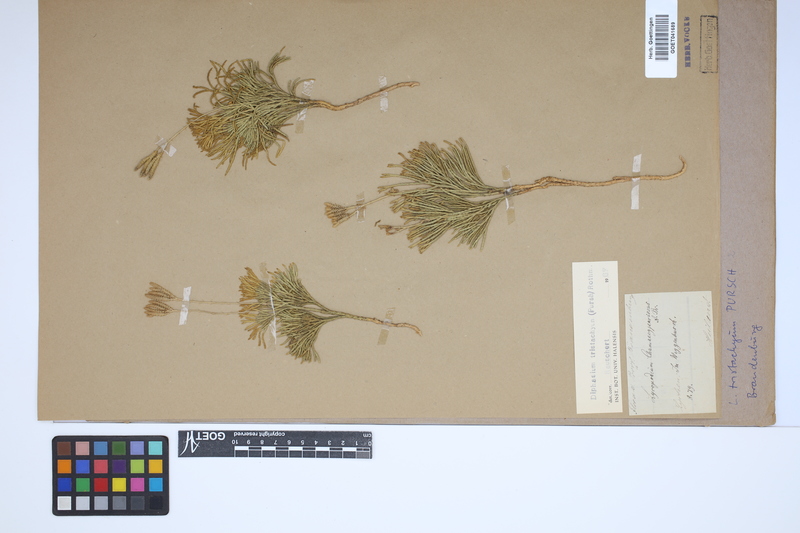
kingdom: Plantae
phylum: Tracheophyta
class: Lycopodiopsida
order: Lycopodiales
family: Lycopodiaceae
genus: Diphasiastrum
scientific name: Diphasiastrum tristachyum
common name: Blue ground-cedar
